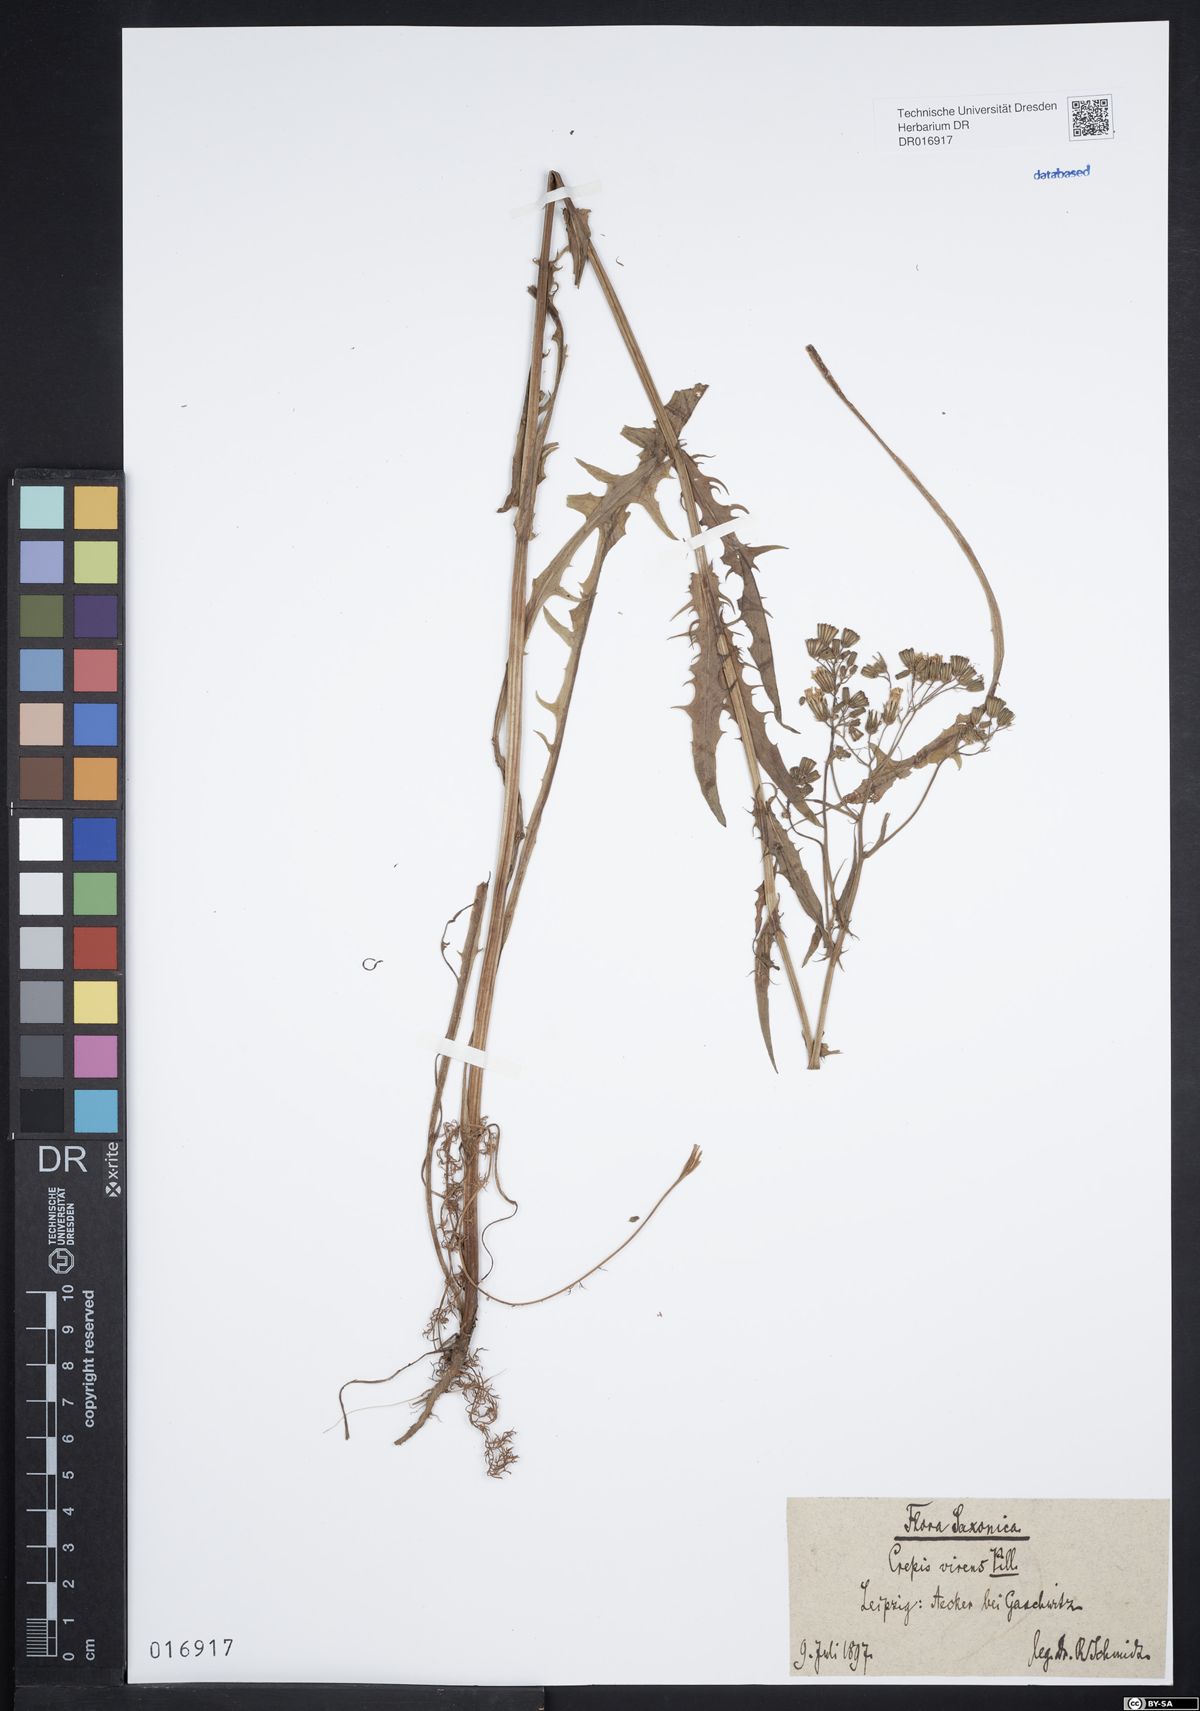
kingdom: Plantae
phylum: Tracheophyta
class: Magnoliopsida
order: Asterales
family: Asteraceae
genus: Crepis
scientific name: Crepis capillaris
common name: Smooth hawksbeard
